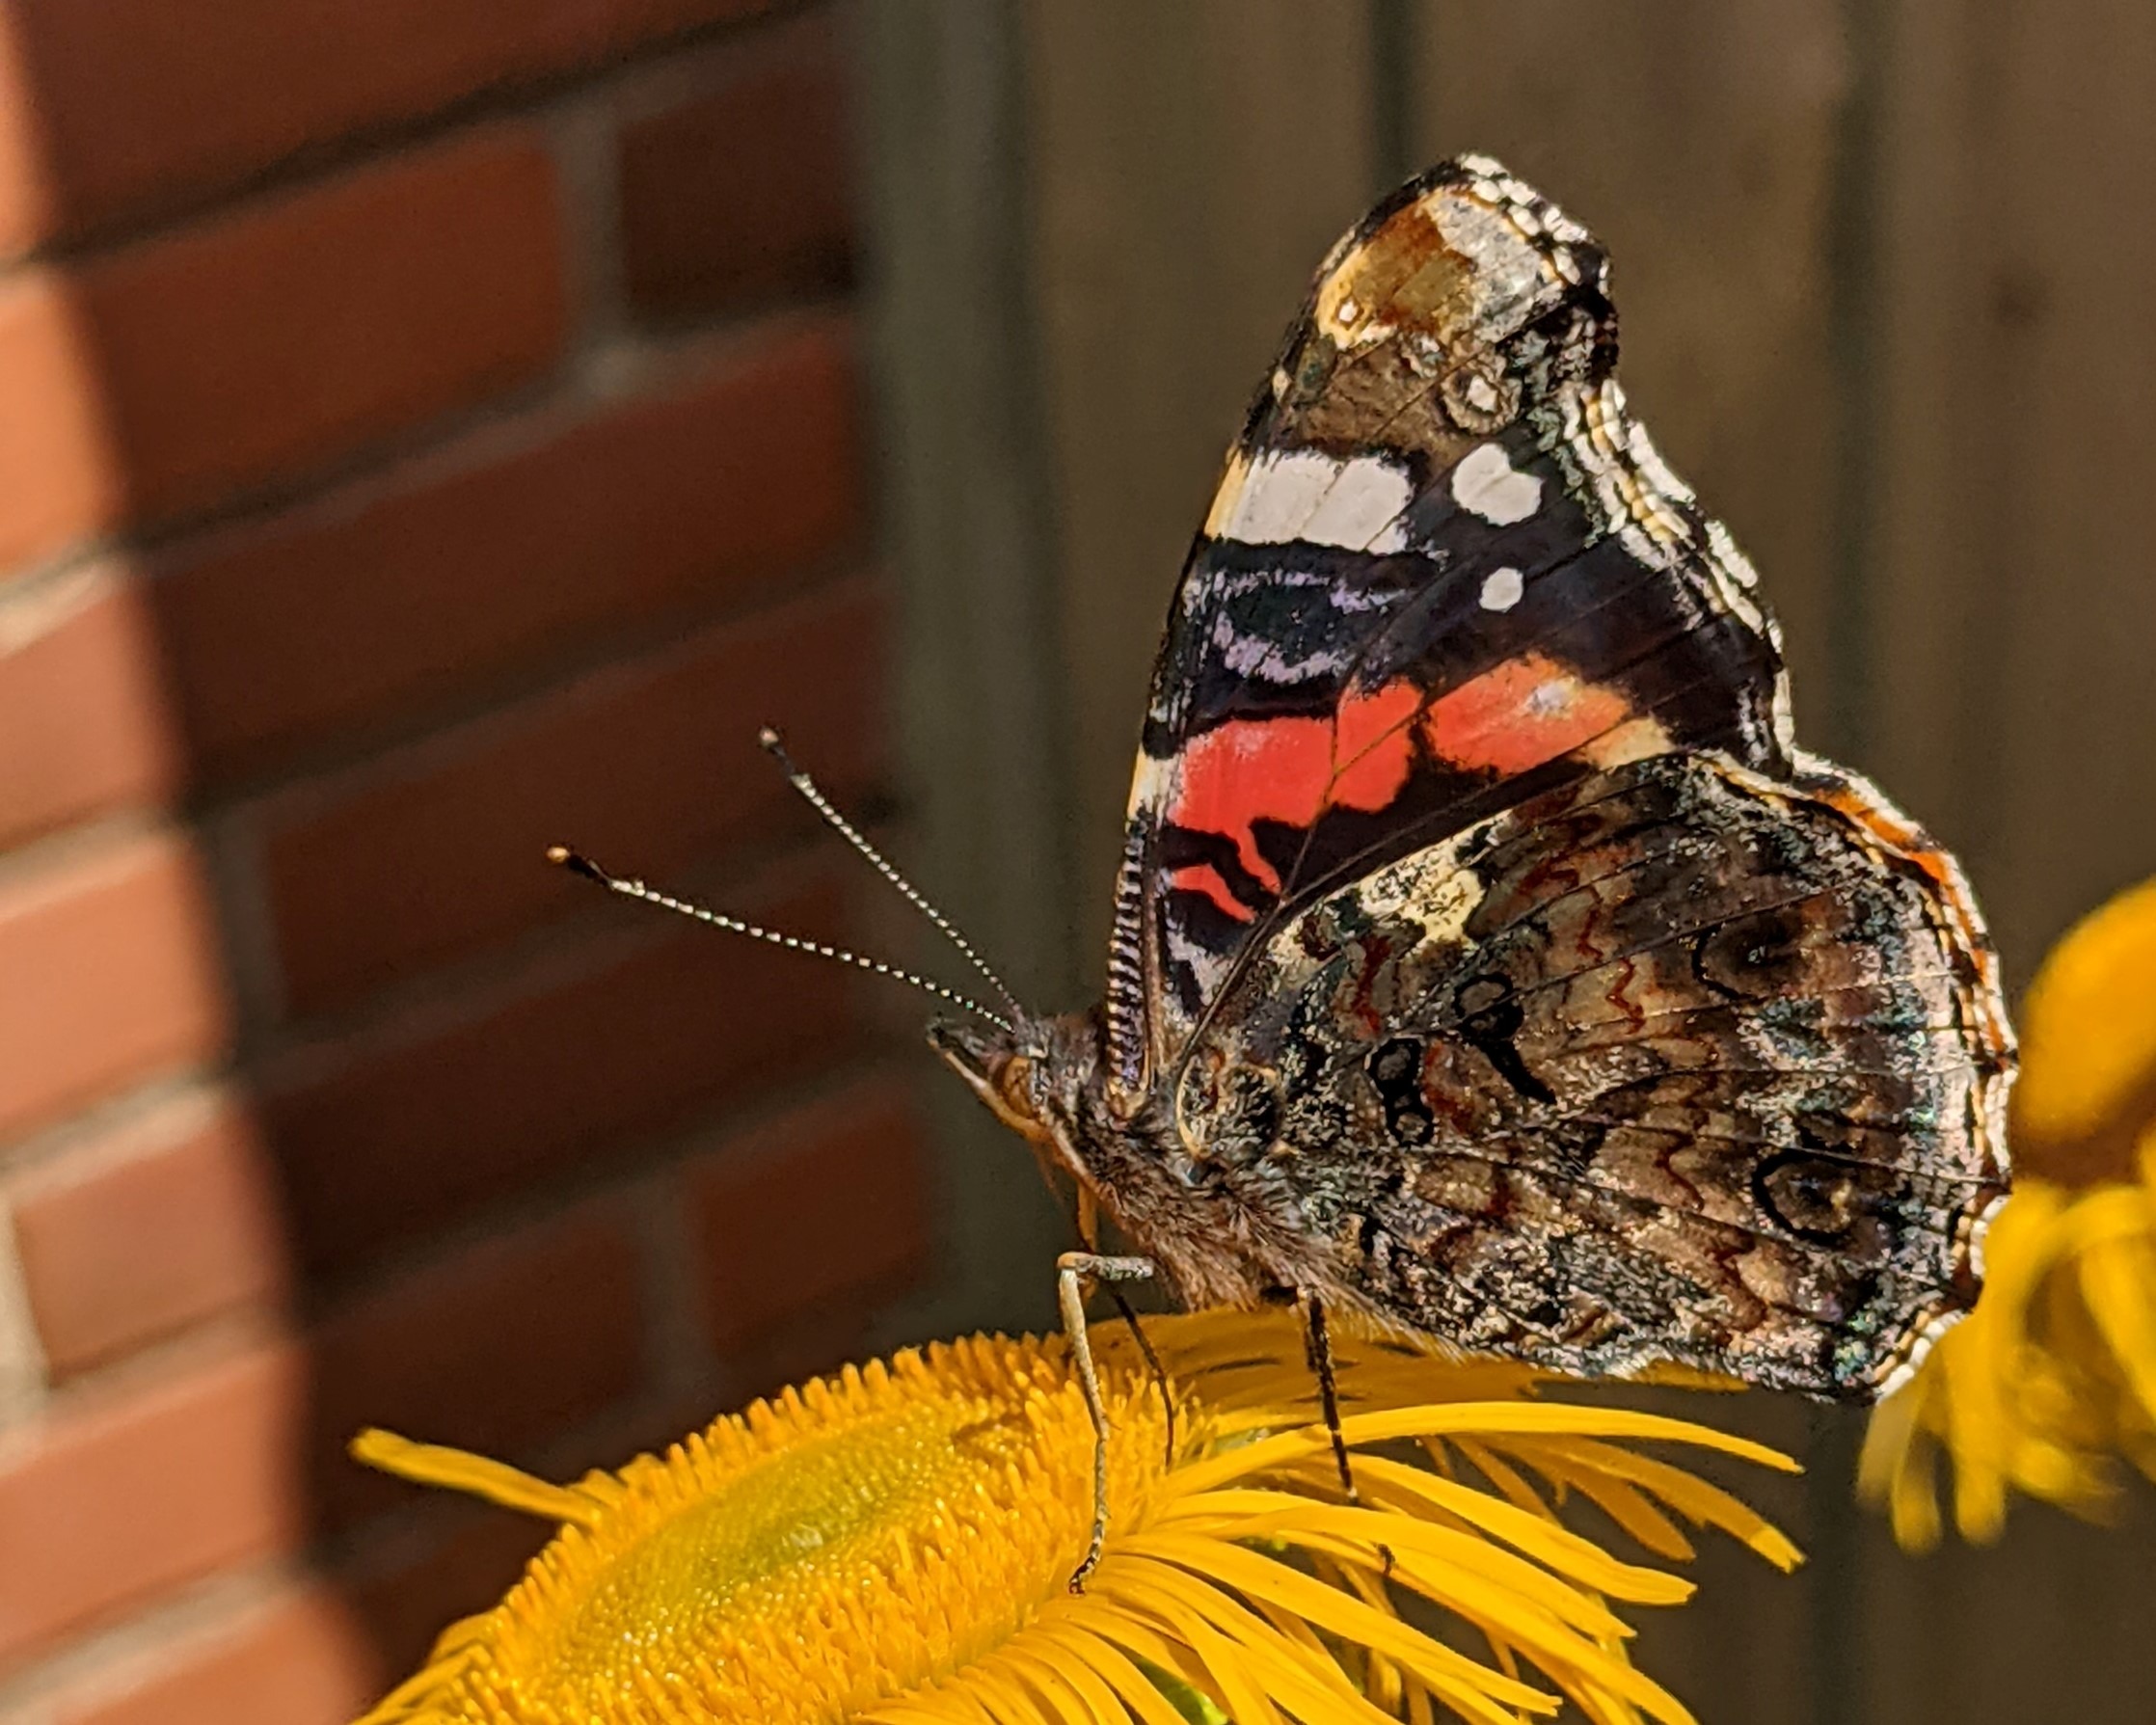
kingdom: Animalia
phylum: Arthropoda
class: Insecta
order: Lepidoptera
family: Nymphalidae
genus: Vanessa
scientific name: Vanessa atalanta
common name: Admiral
